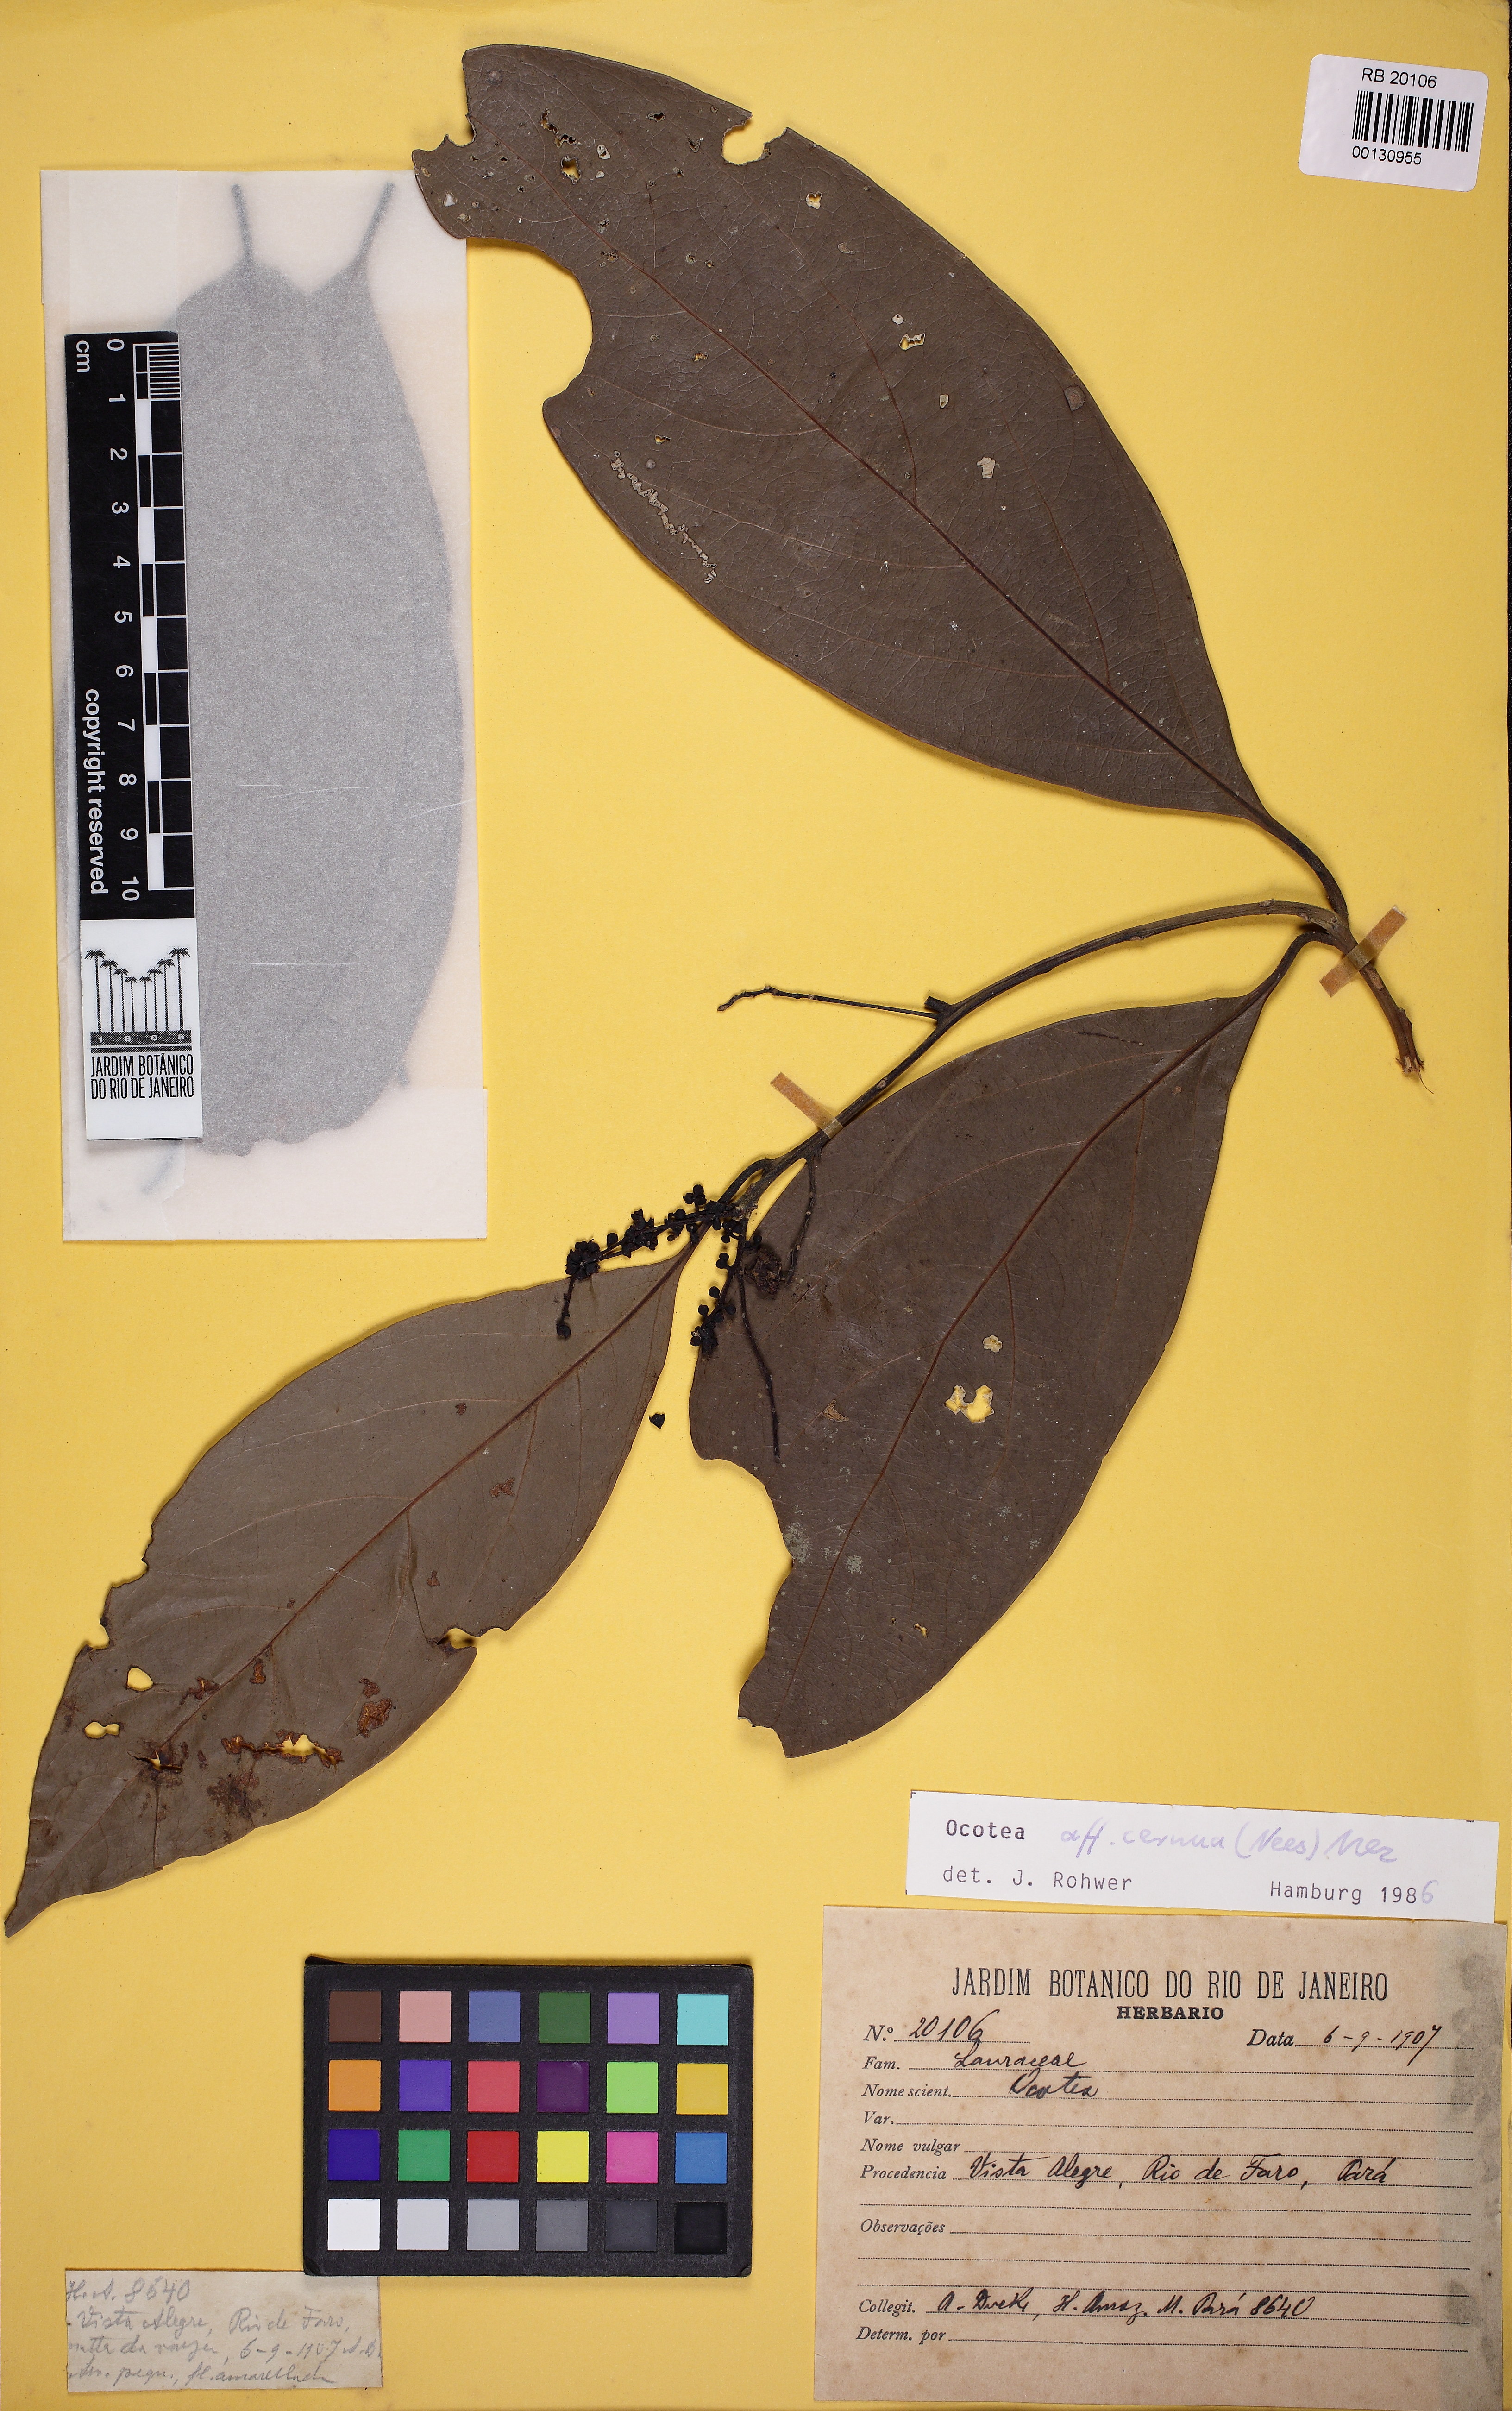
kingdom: Plantae
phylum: Tracheophyta
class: Magnoliopsida
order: Laurales
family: Lauraceae
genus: Ocotea
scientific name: Ocotea leptobotra
